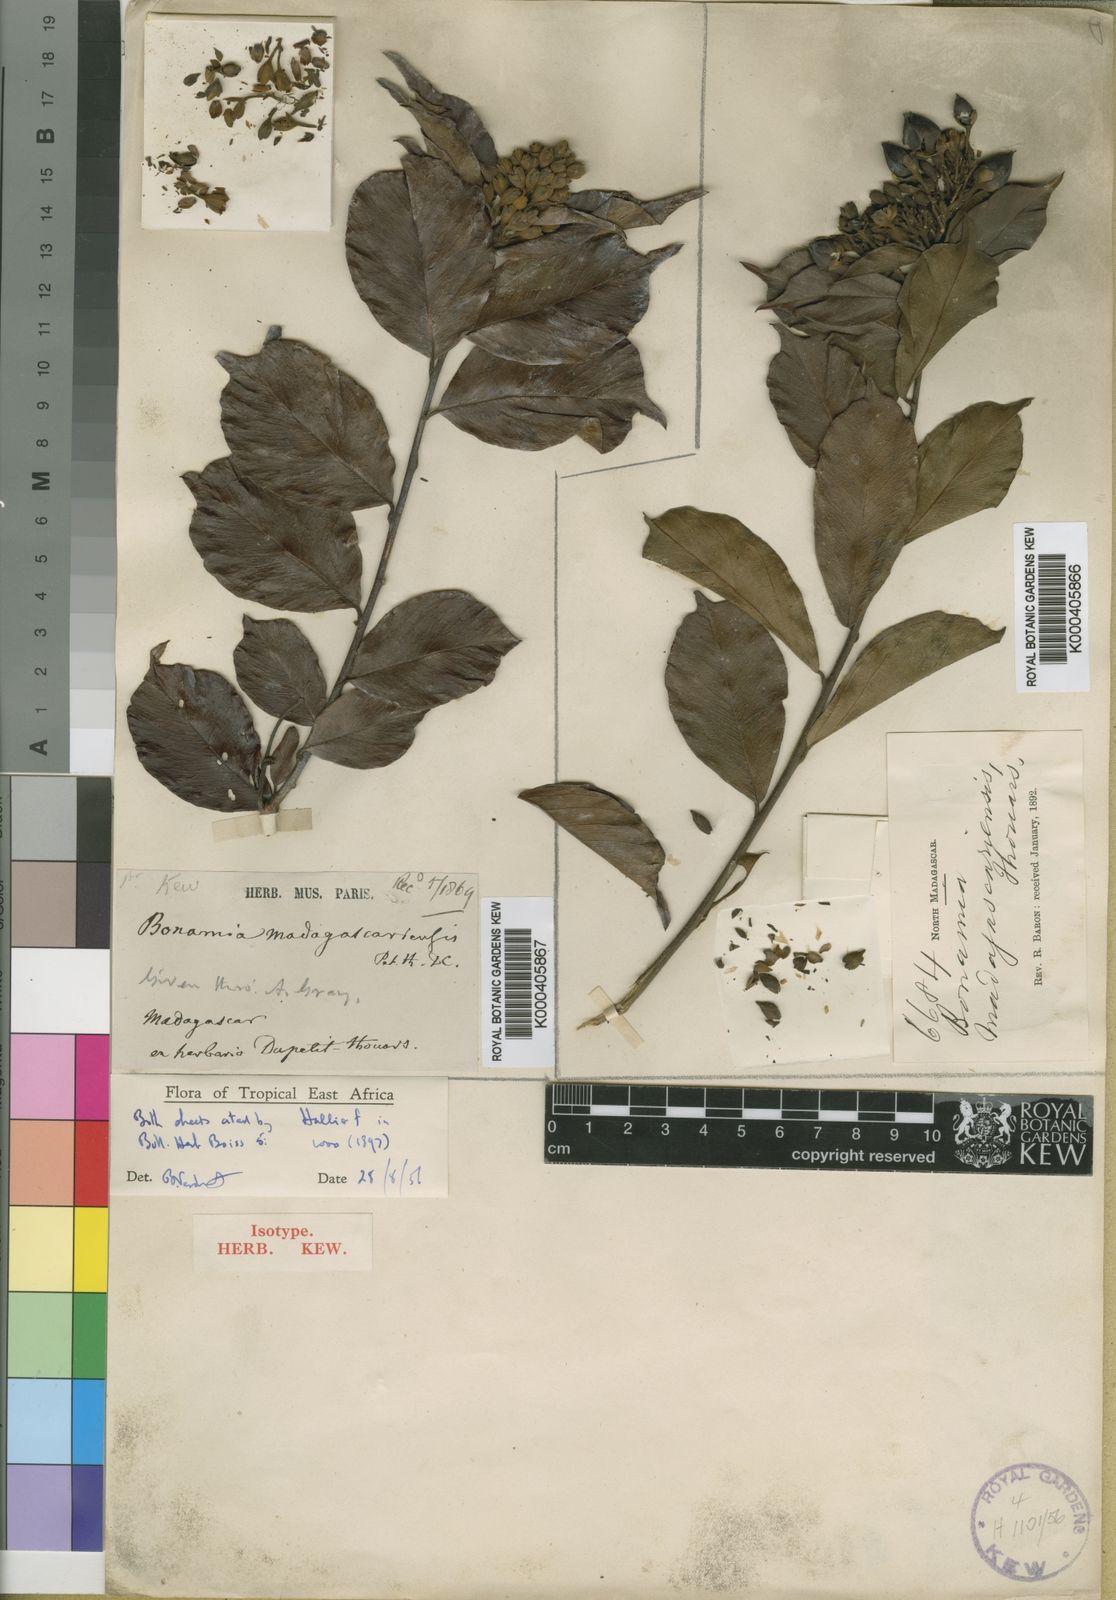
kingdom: Plantae
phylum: Tracheophyta
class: Magnoliopsida
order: Solanales
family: Convolvulaceae
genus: Bonamia
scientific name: Bonamia alternifolia
